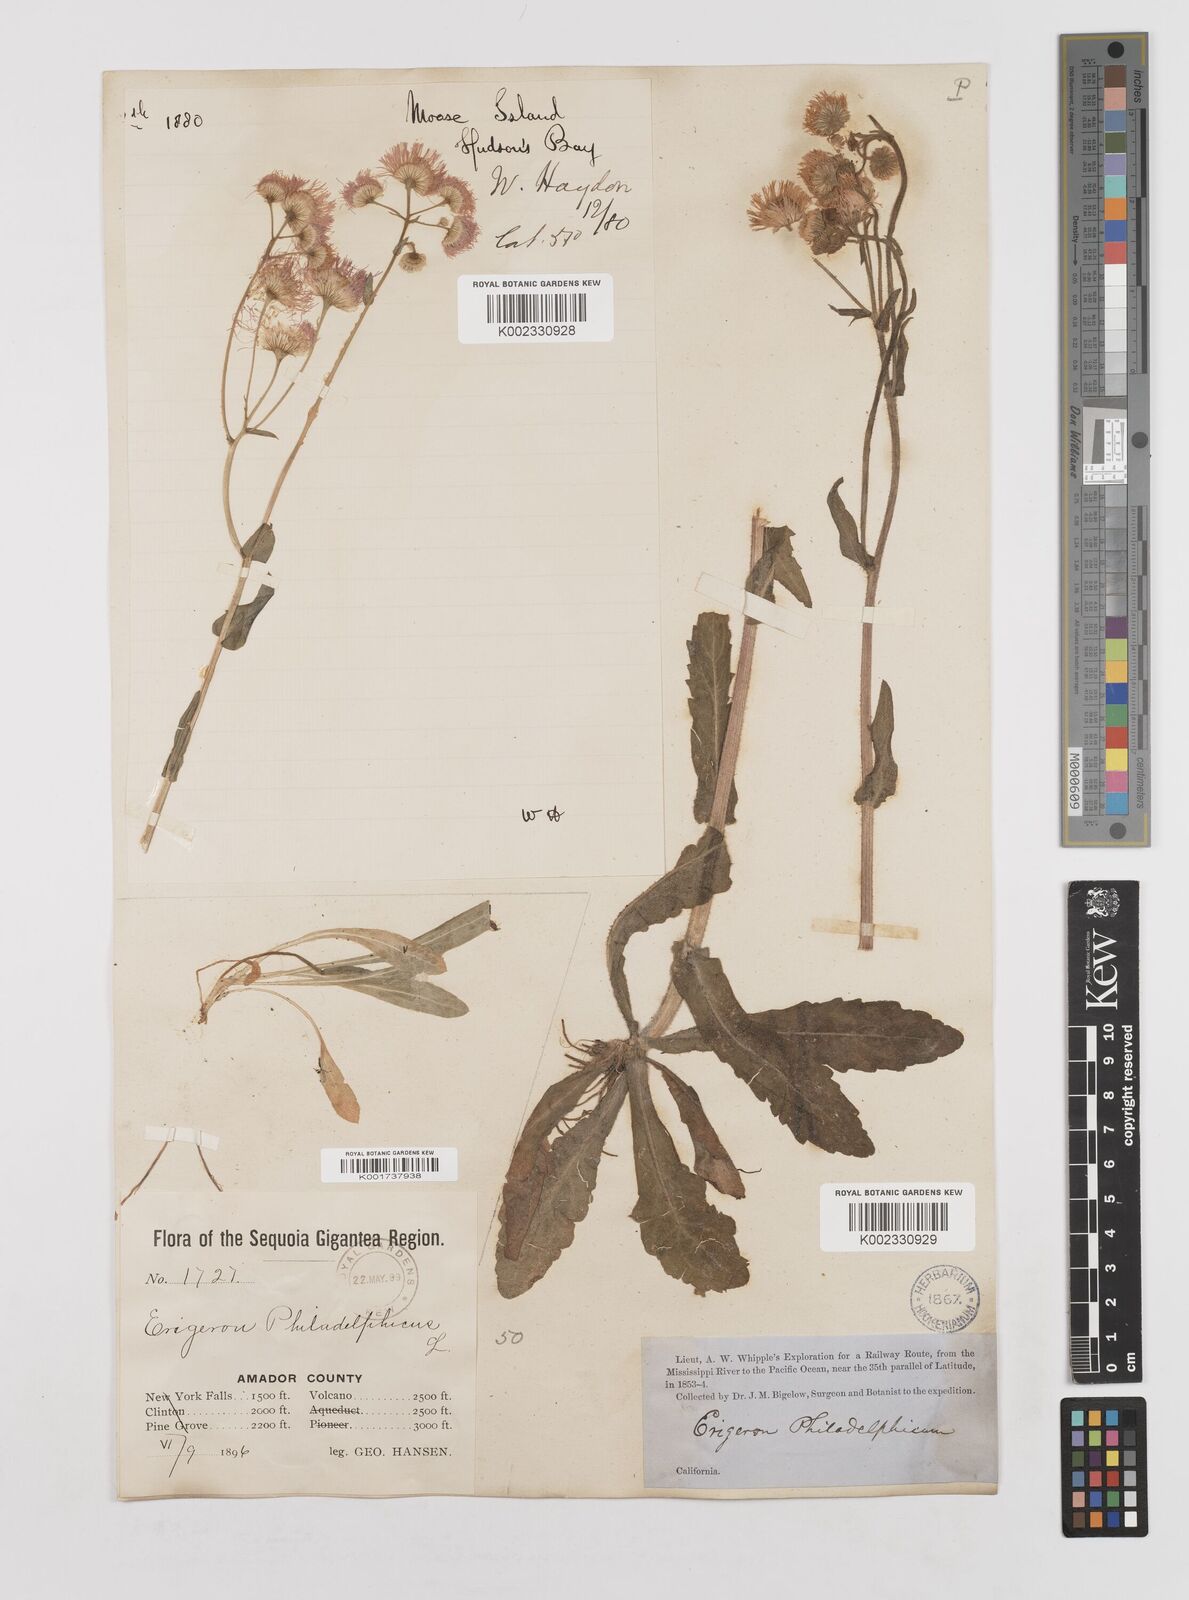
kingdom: Plantae
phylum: Tracheophyta
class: Magnoliopsida
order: Asterales
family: Asteraceae
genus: Erigeron
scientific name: Erigeron philadelphicus
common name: Robin's-plantain
